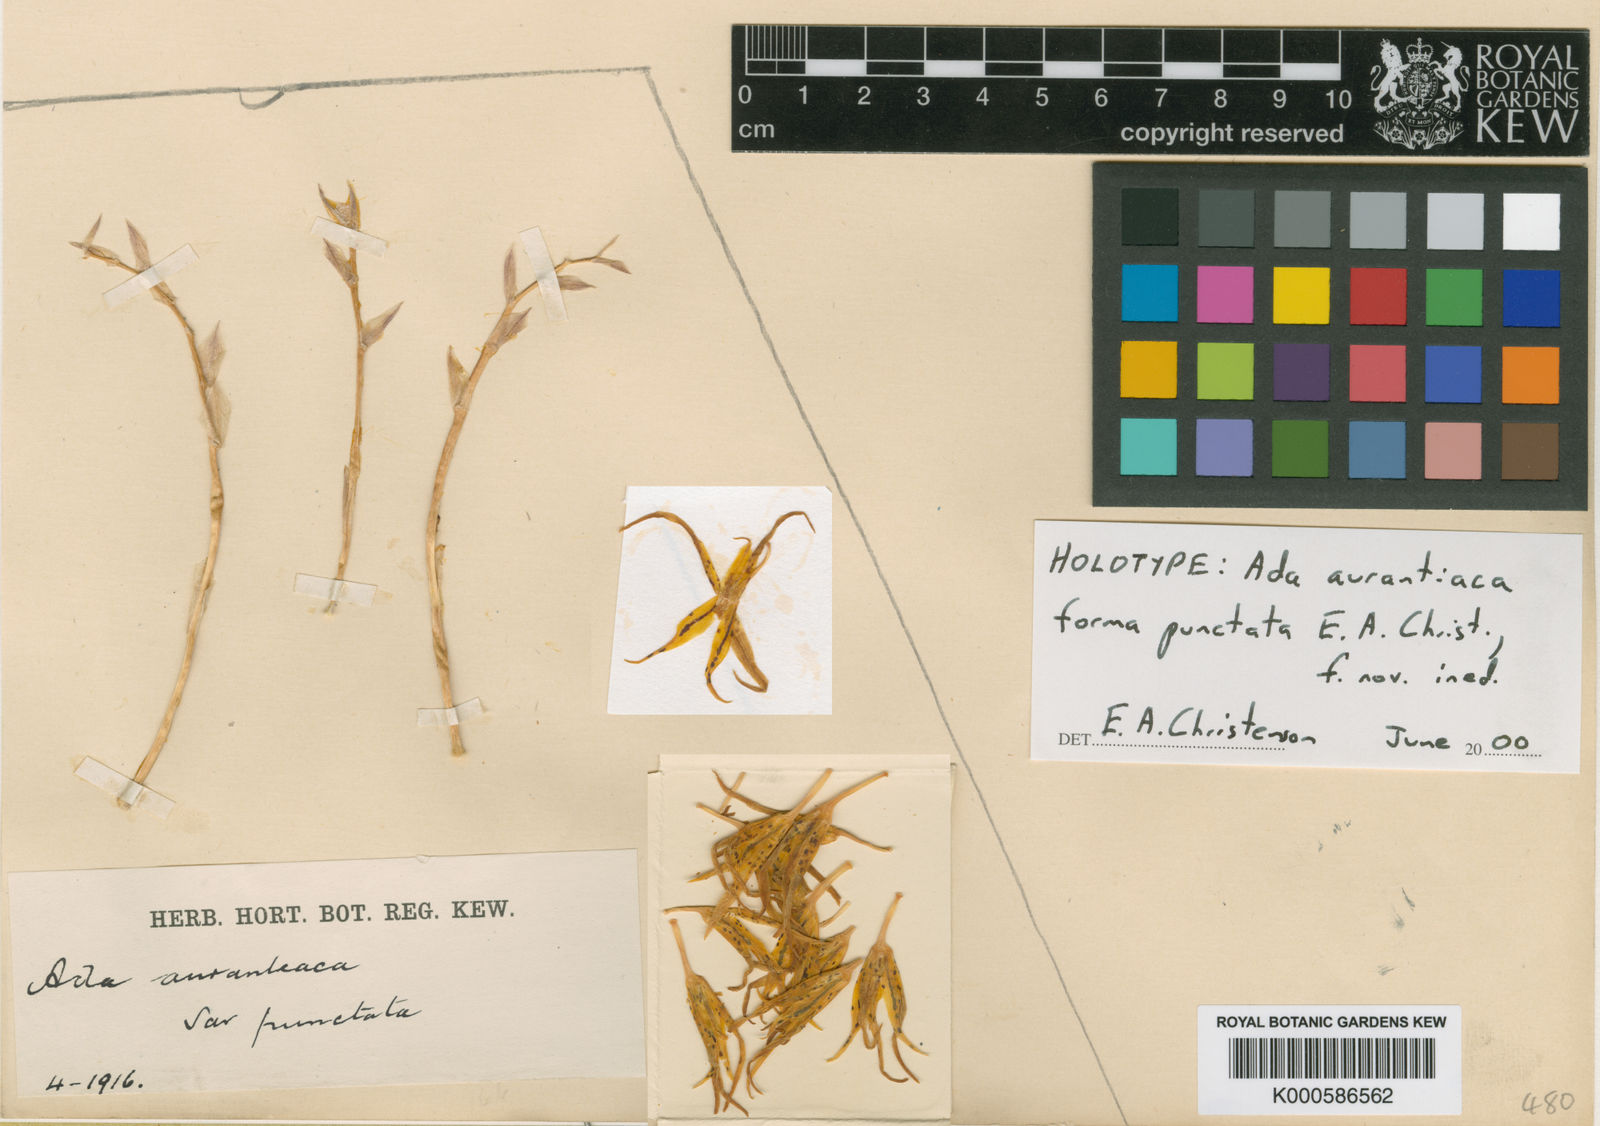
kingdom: Plantae
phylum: Tracheophyta
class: Liliopsida
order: Asparagales
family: Orchidaceae
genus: Brassia
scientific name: Brassia aurantiaca
